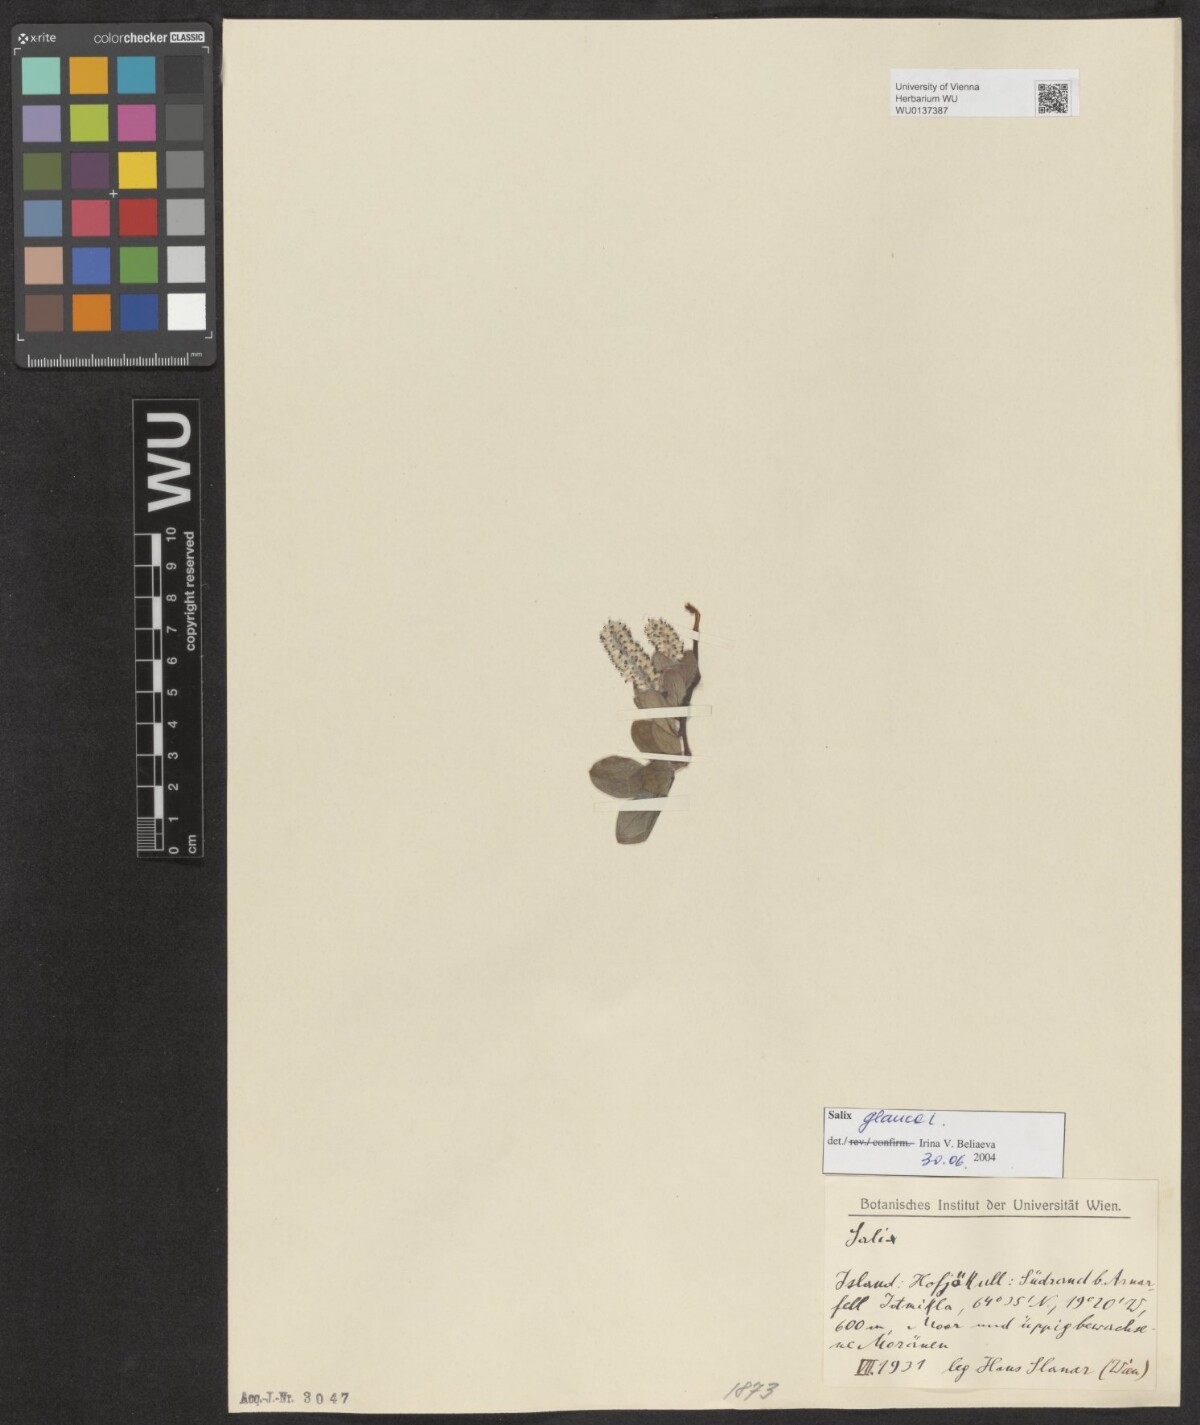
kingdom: Plantae
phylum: Tracheophyta
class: Magnoliopsida
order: Malpighiales
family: Salicaceae
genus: Salix
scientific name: Salix glauca
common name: Glaucous willow
